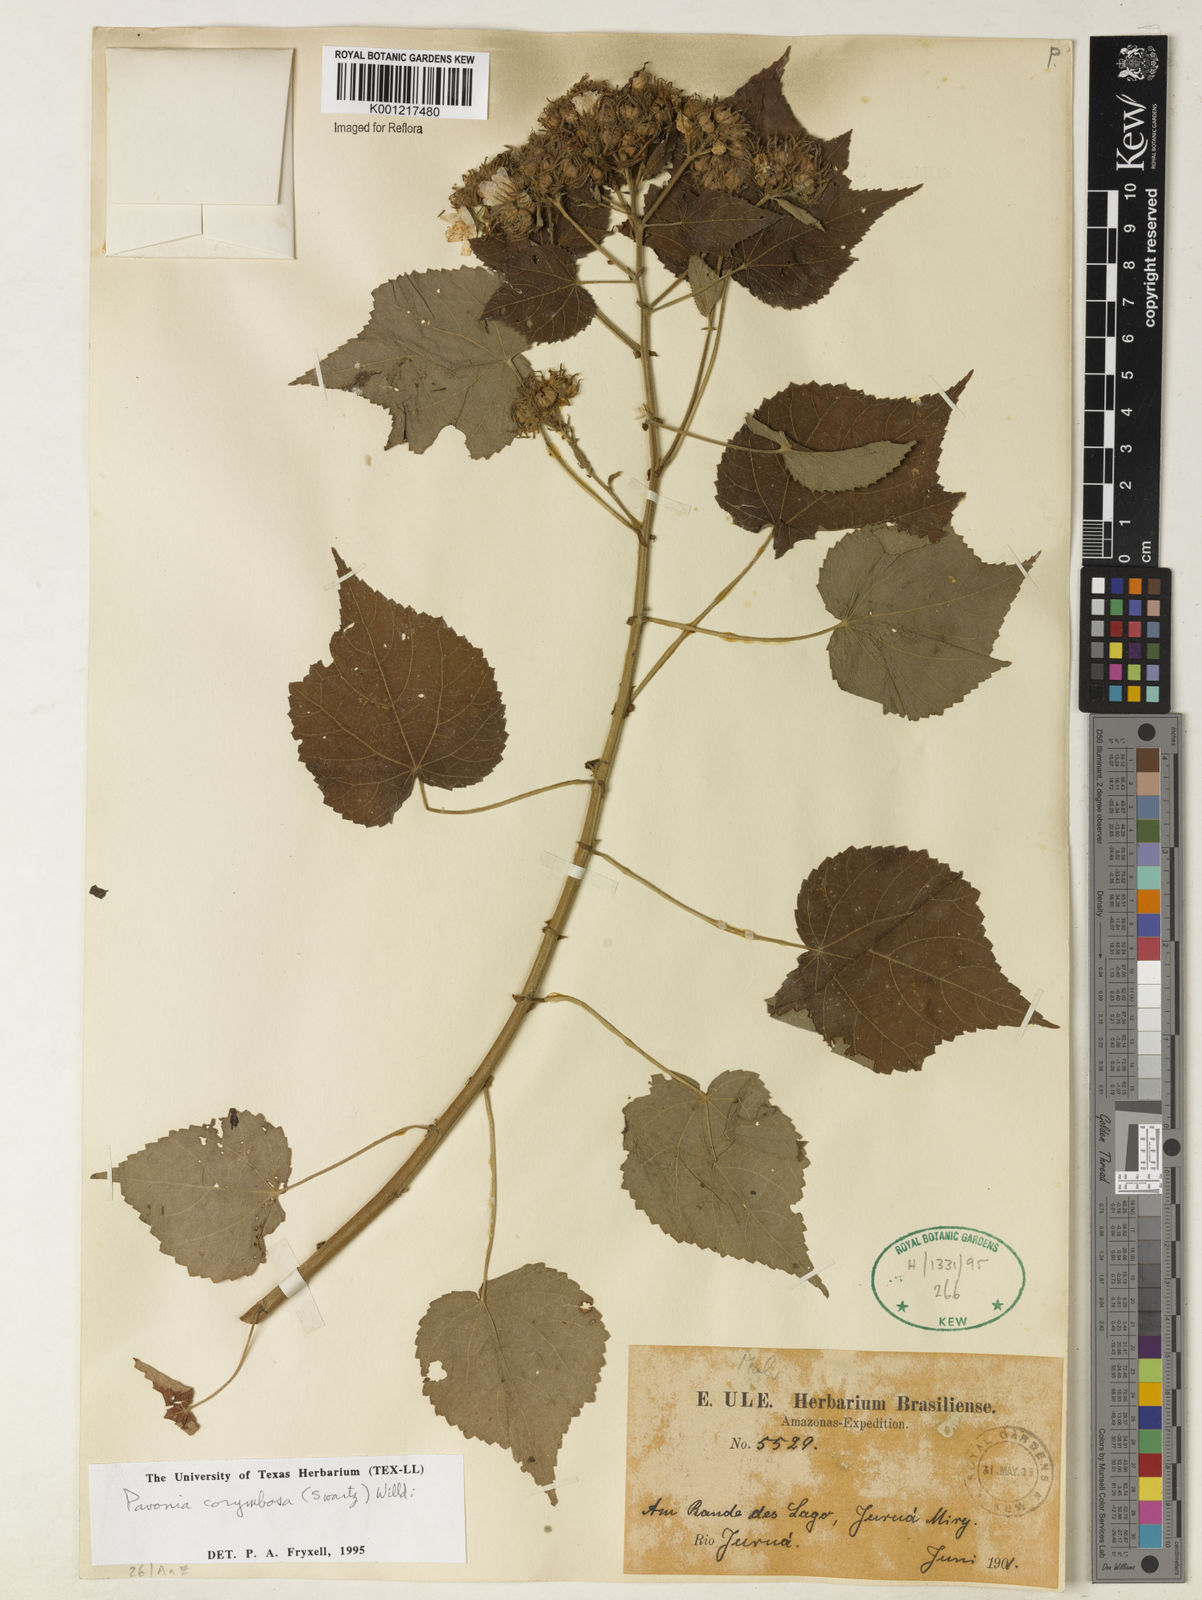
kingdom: Plantae
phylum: Tracheophyta
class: Magnoliopsida
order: Malvales
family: Malvaceae
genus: Pavonia
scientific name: Pavonia corymbosa
